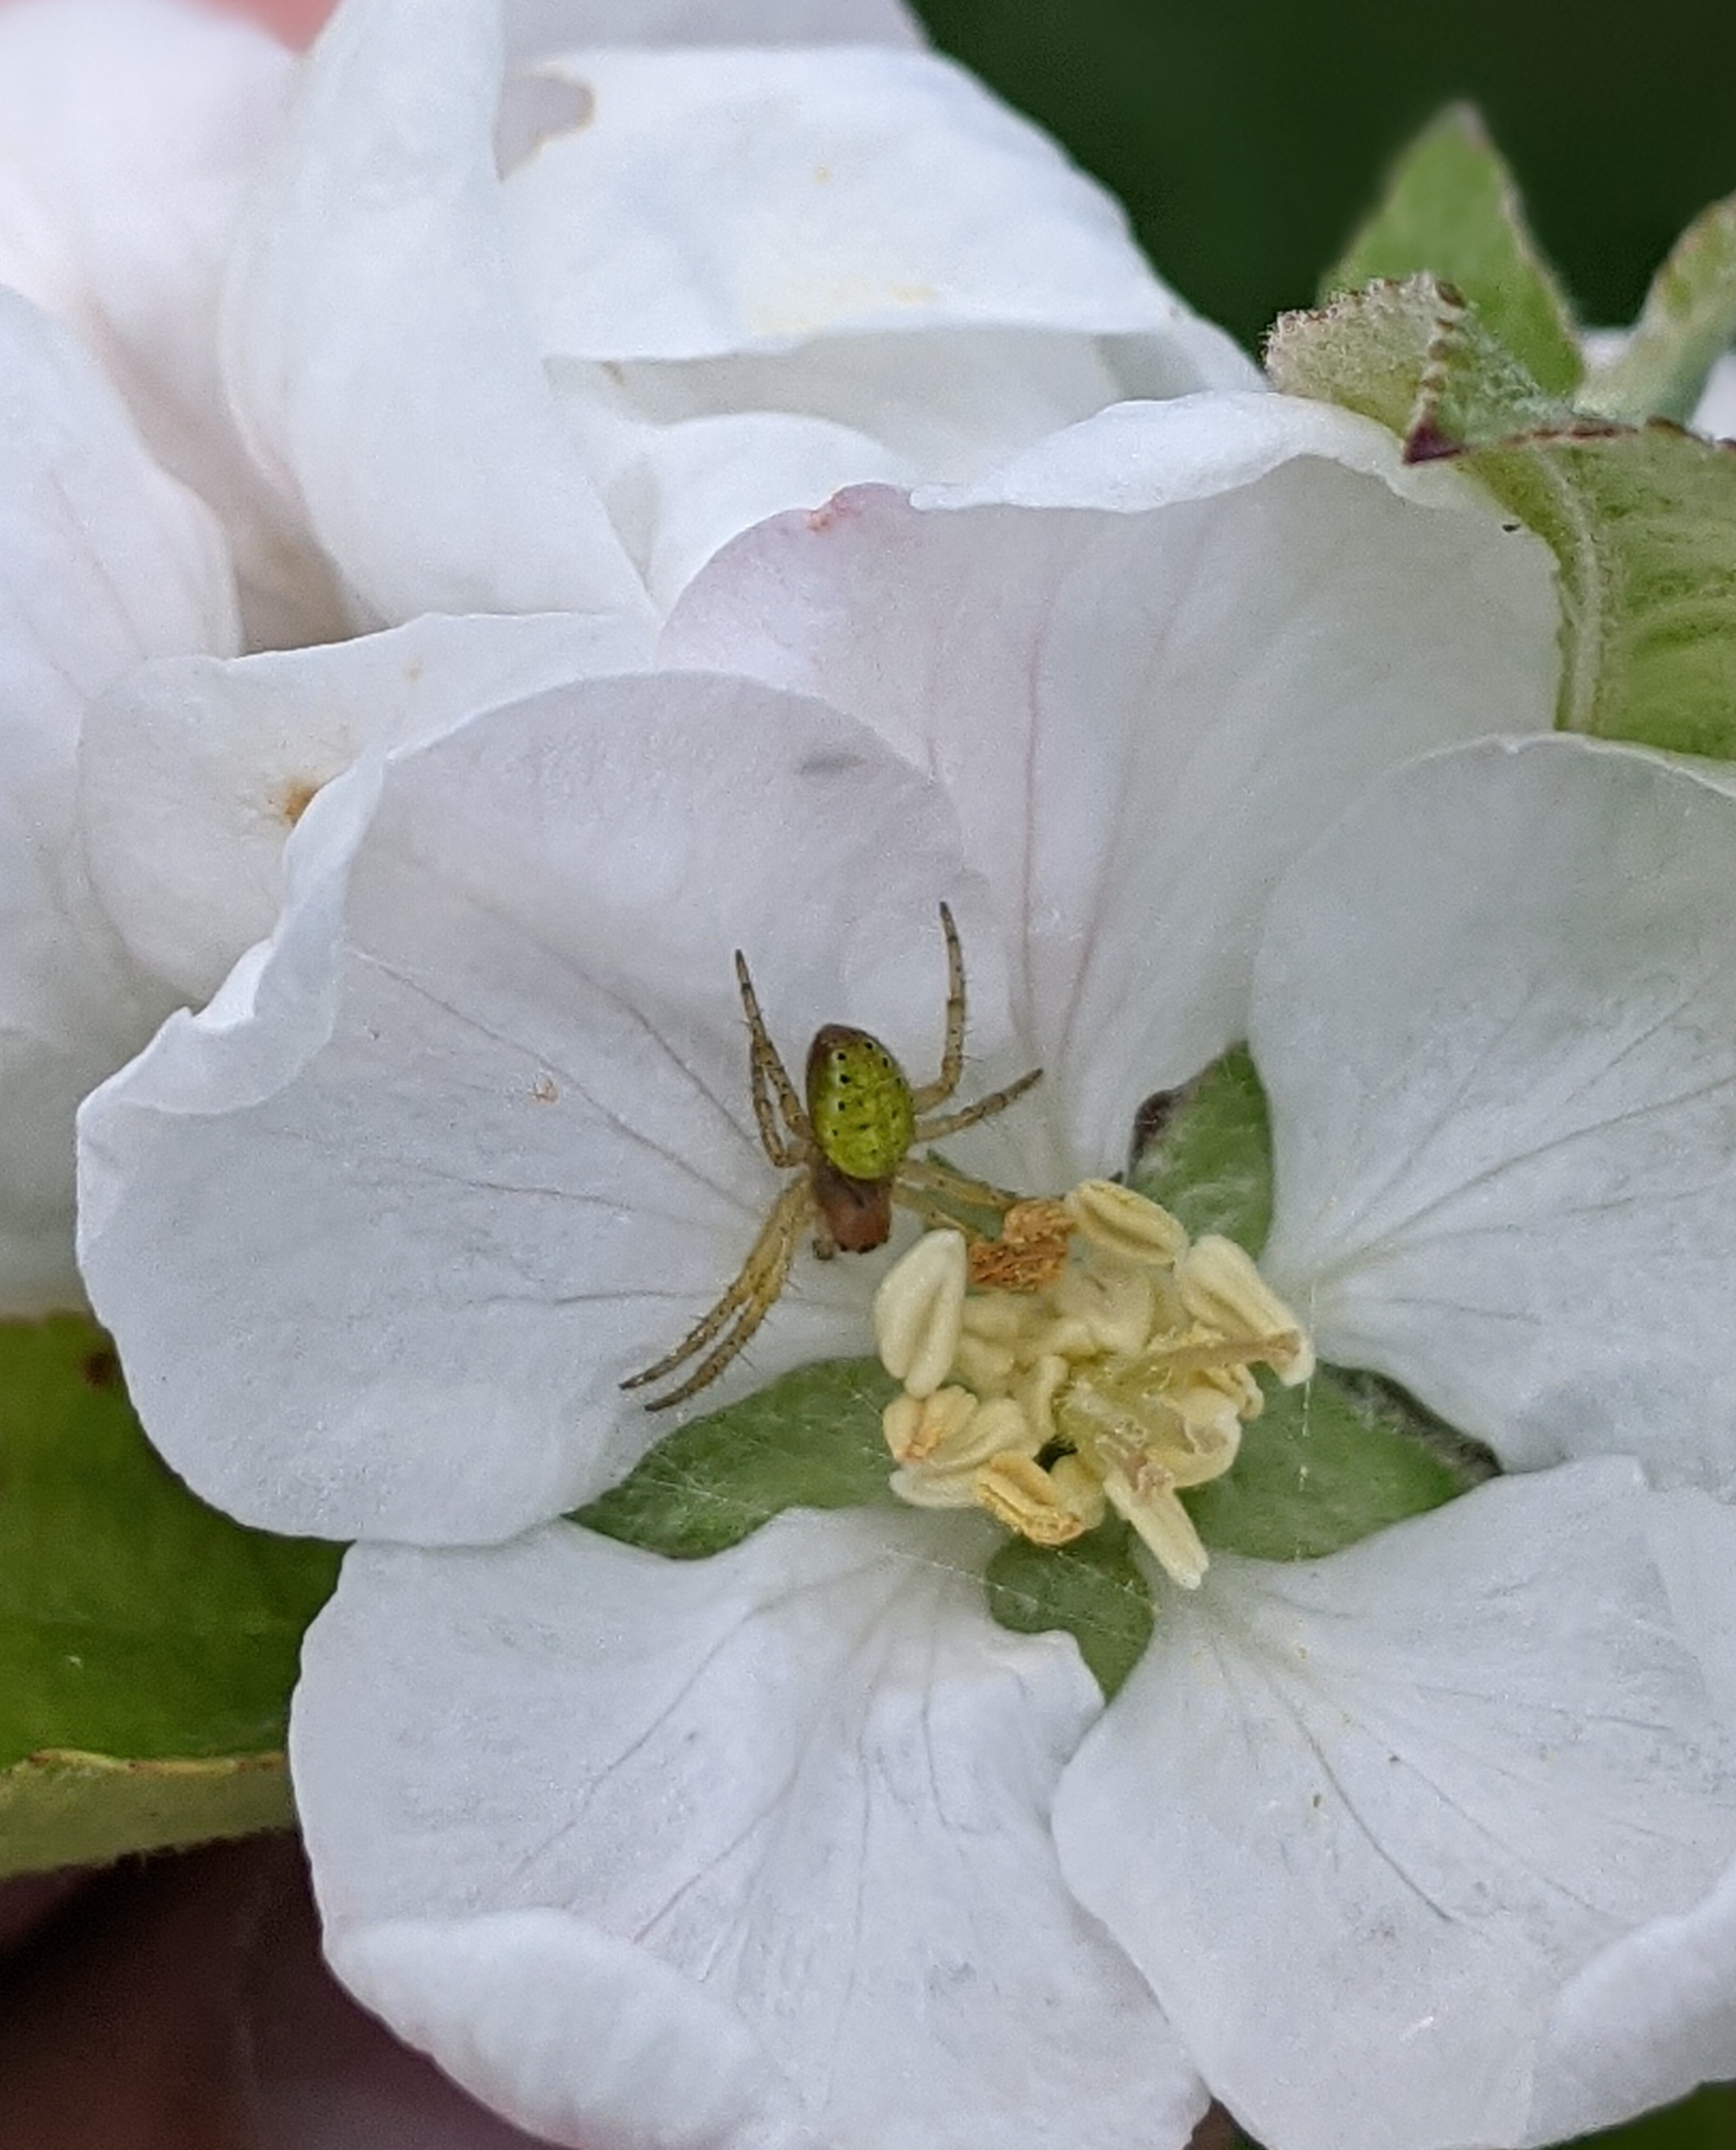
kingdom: Animalia
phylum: Arthropoda
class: Arachnida
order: Araneae
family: Araneidae
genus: Araniella
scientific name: Araniella
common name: Agurkeedderkopslægten
